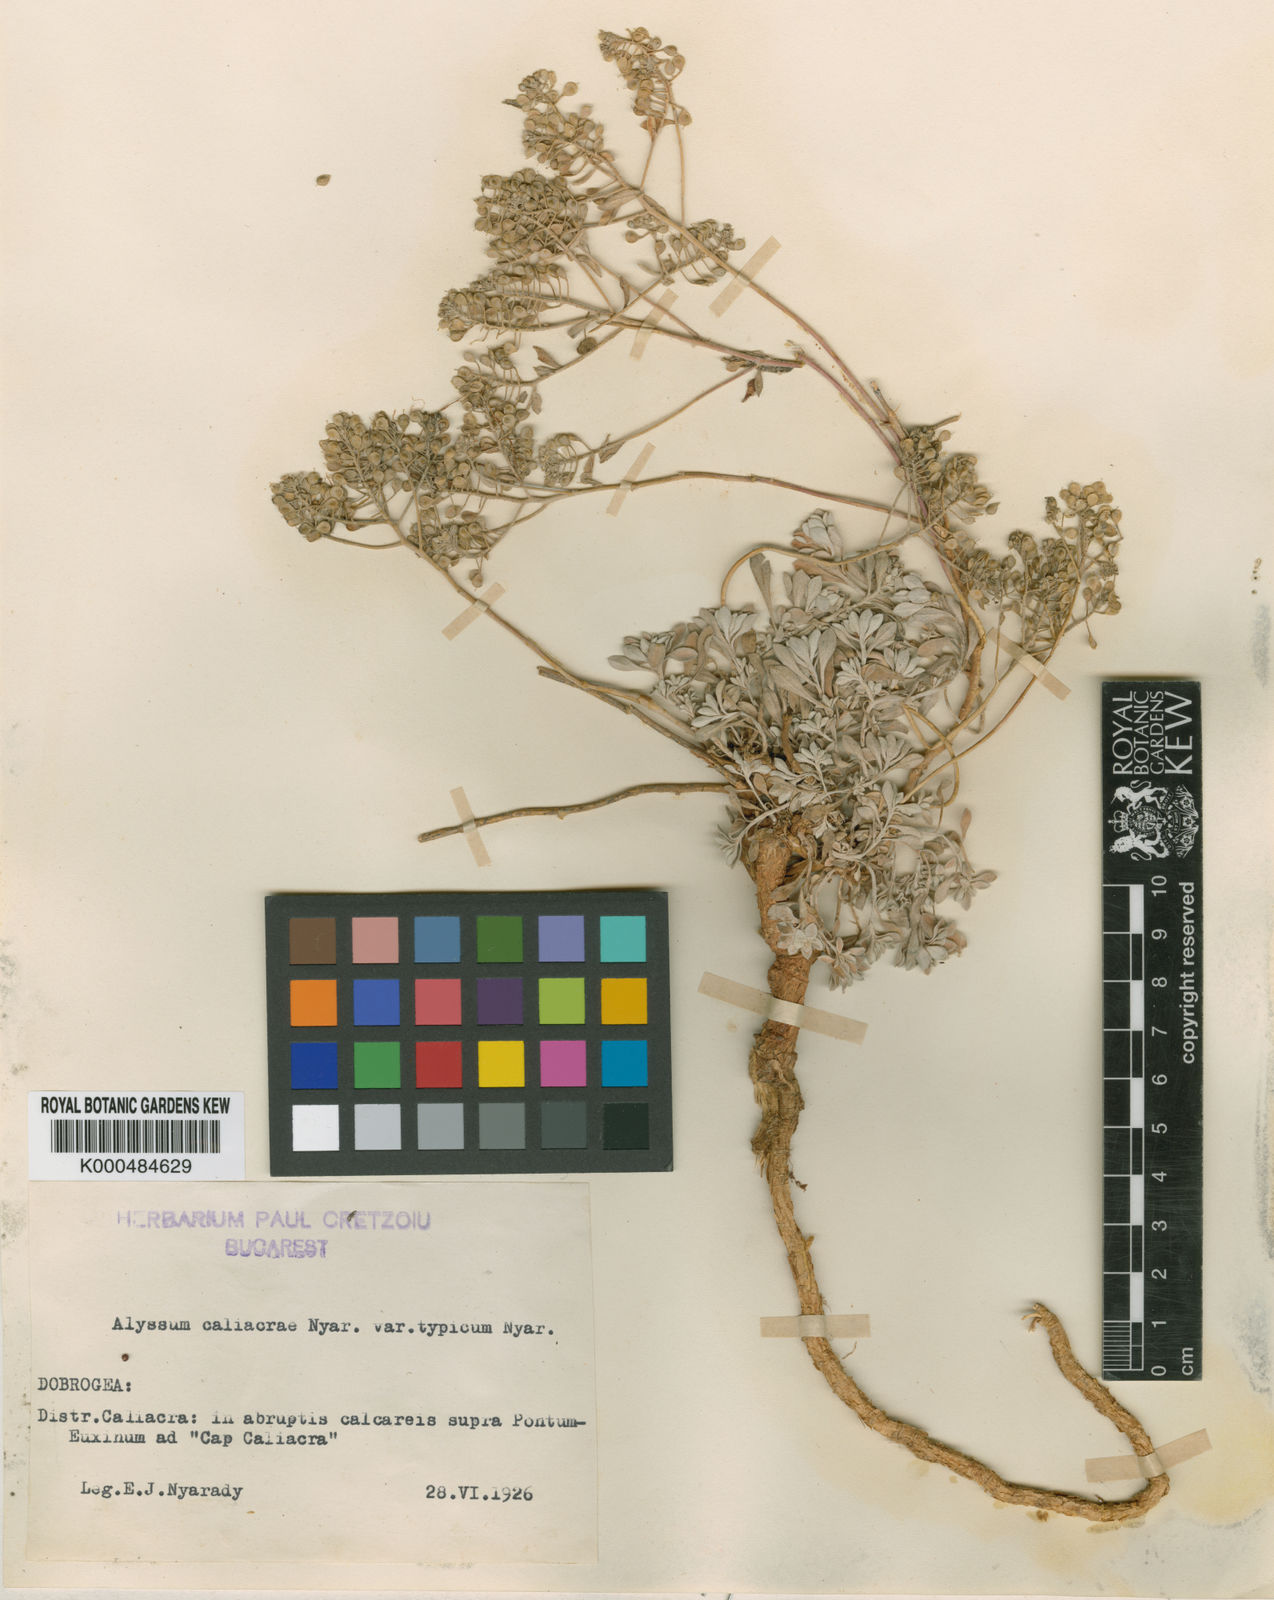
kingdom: Plantae
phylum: Tracheophyta
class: Magnoliopsida
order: Brassicales
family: Brassicaceae
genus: Odontarrhena
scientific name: Odontarrhena caliacrae
